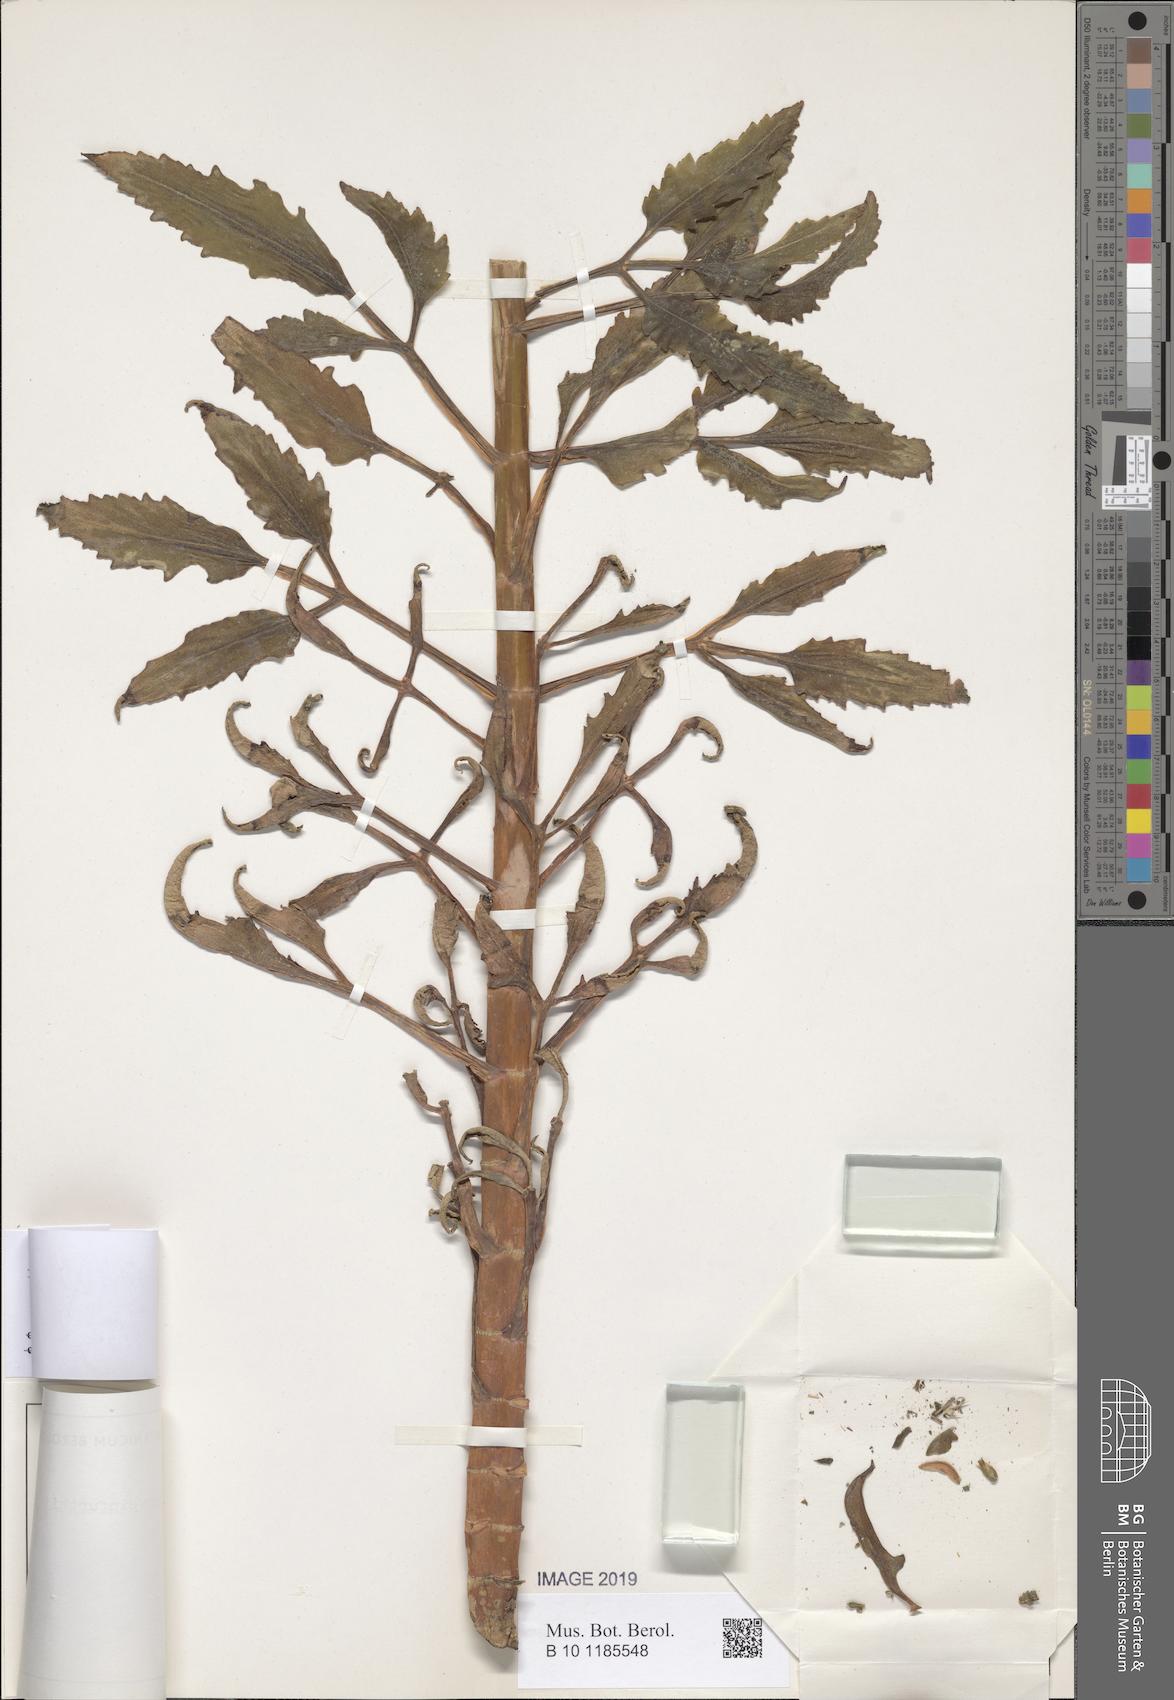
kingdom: Plantae
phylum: Tracheophyta
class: Magnoliopsida
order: Saxifragales
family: Crassulaceae
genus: Kalanchoe
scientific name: Kalanchoe laciniata
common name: Christmastree plant
